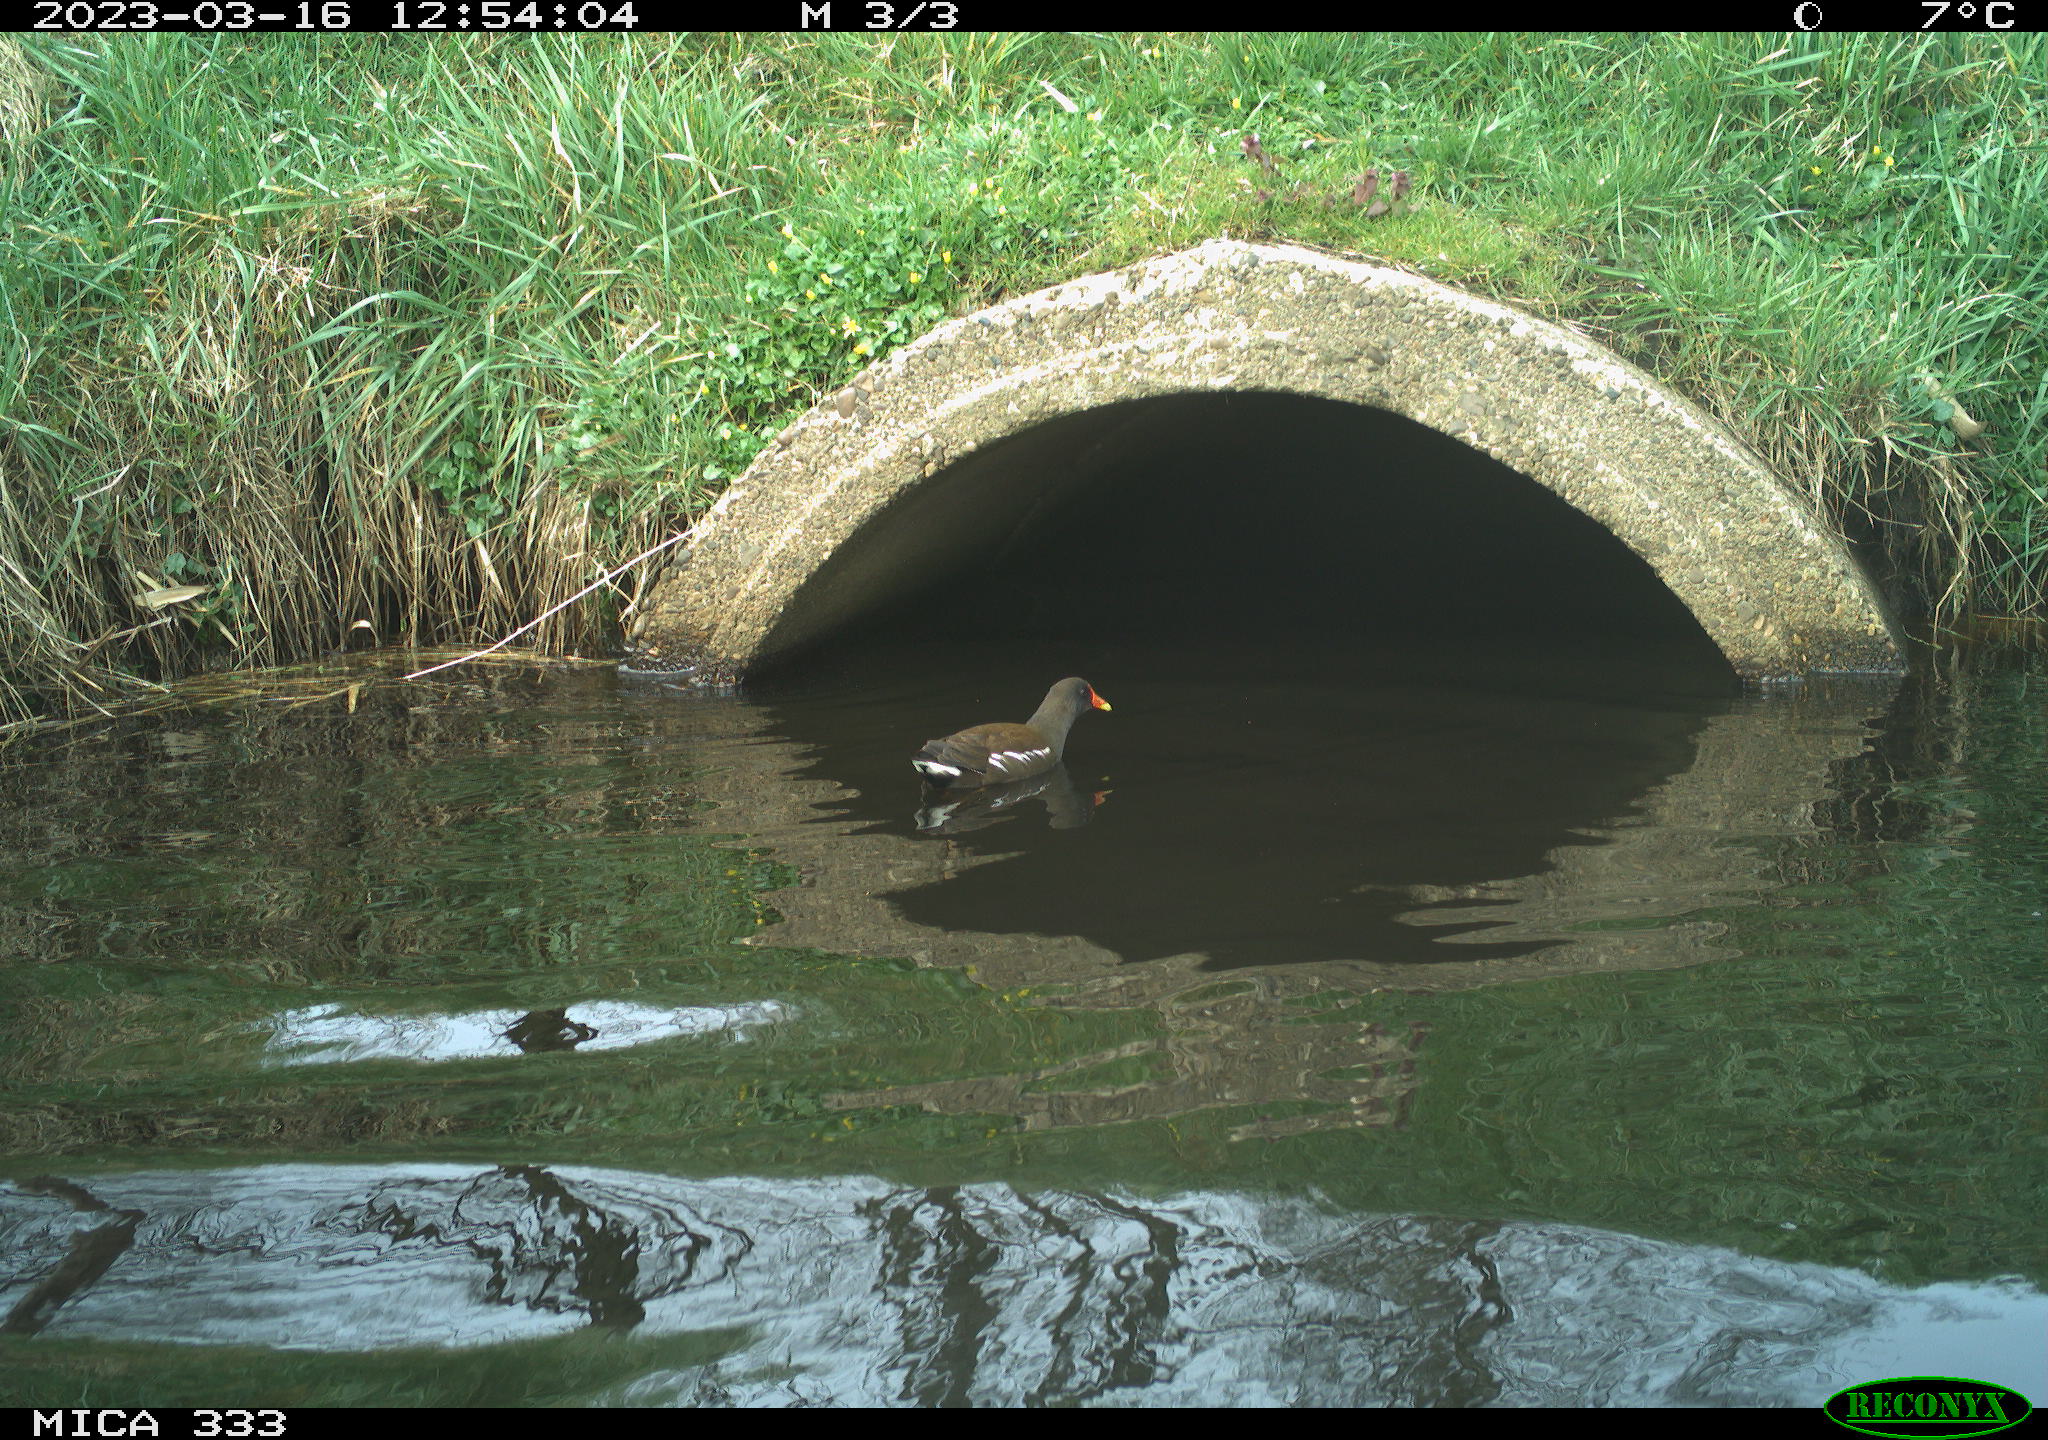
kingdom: Animalia
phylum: Chordata
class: Aves
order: Gruiformes
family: Rallidae
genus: Gallinula
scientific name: Gallinula chloropus
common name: Common moorhen
